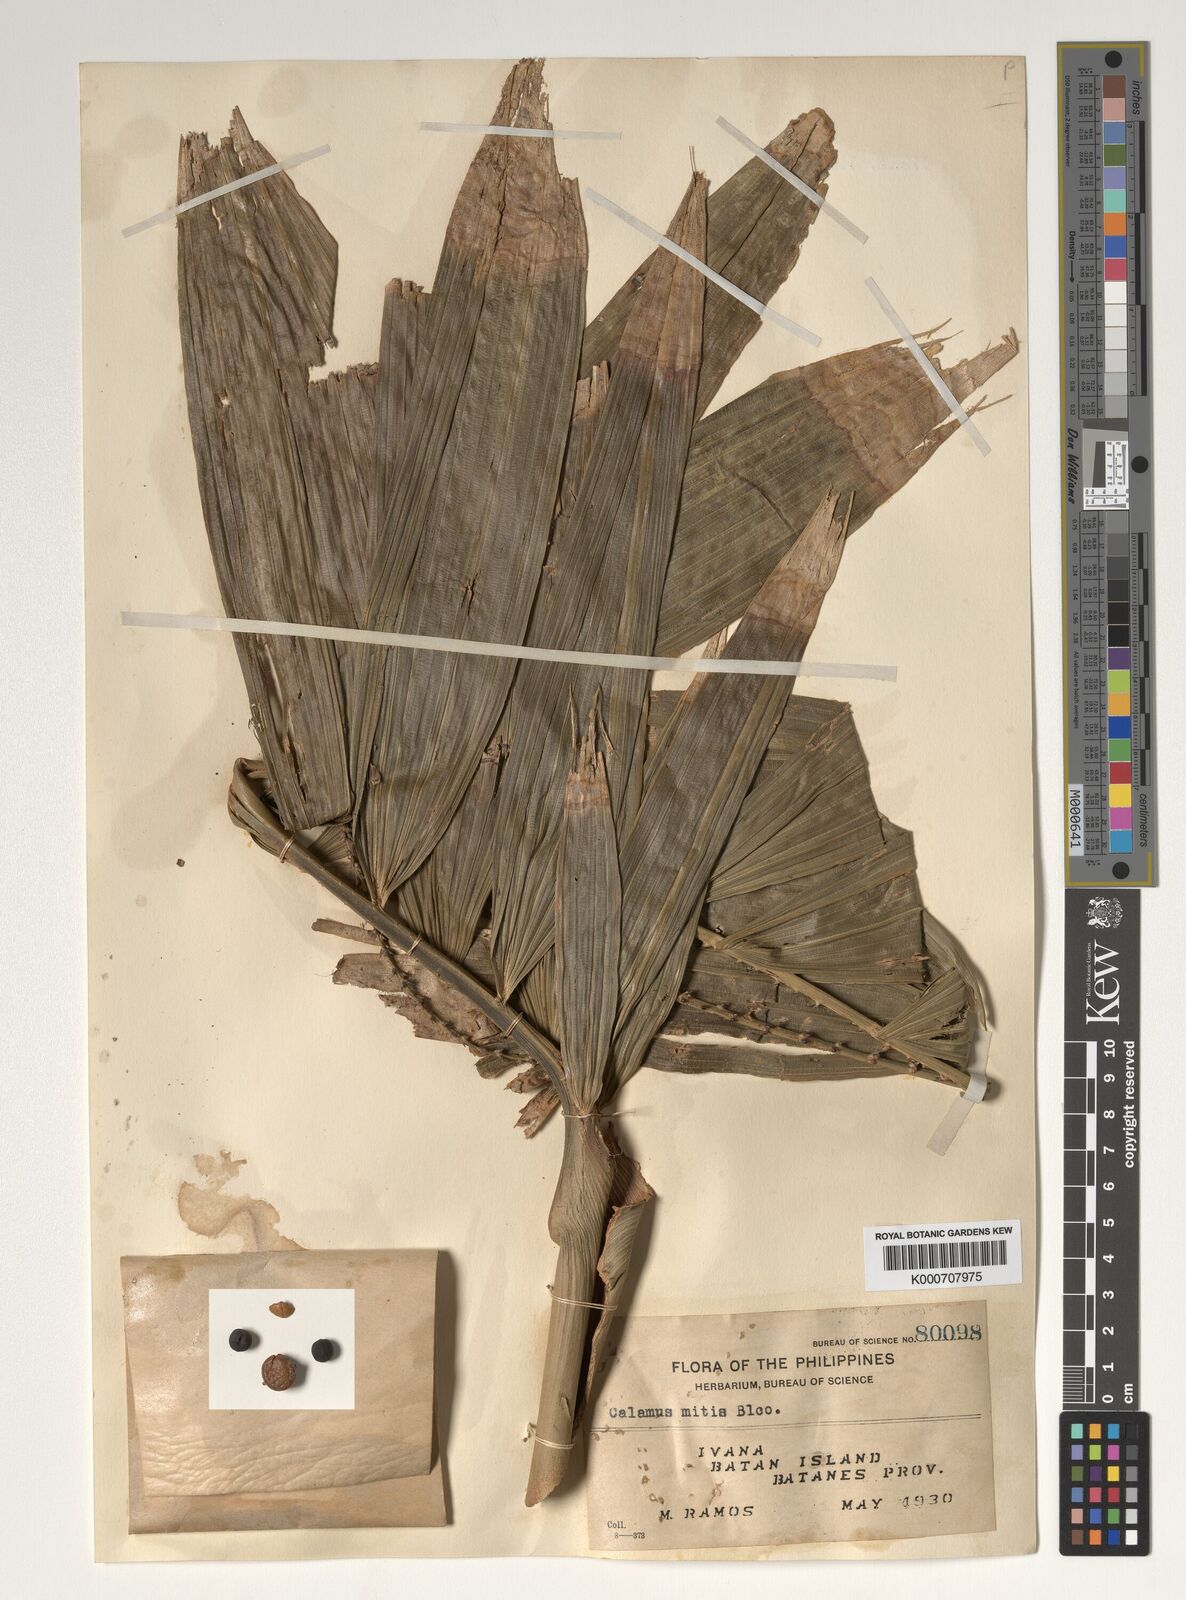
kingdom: Plantae
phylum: Tracheophyta
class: Liliopsida
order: Arecales
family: Arecaceae
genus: Calamus
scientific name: Calamus mitis
